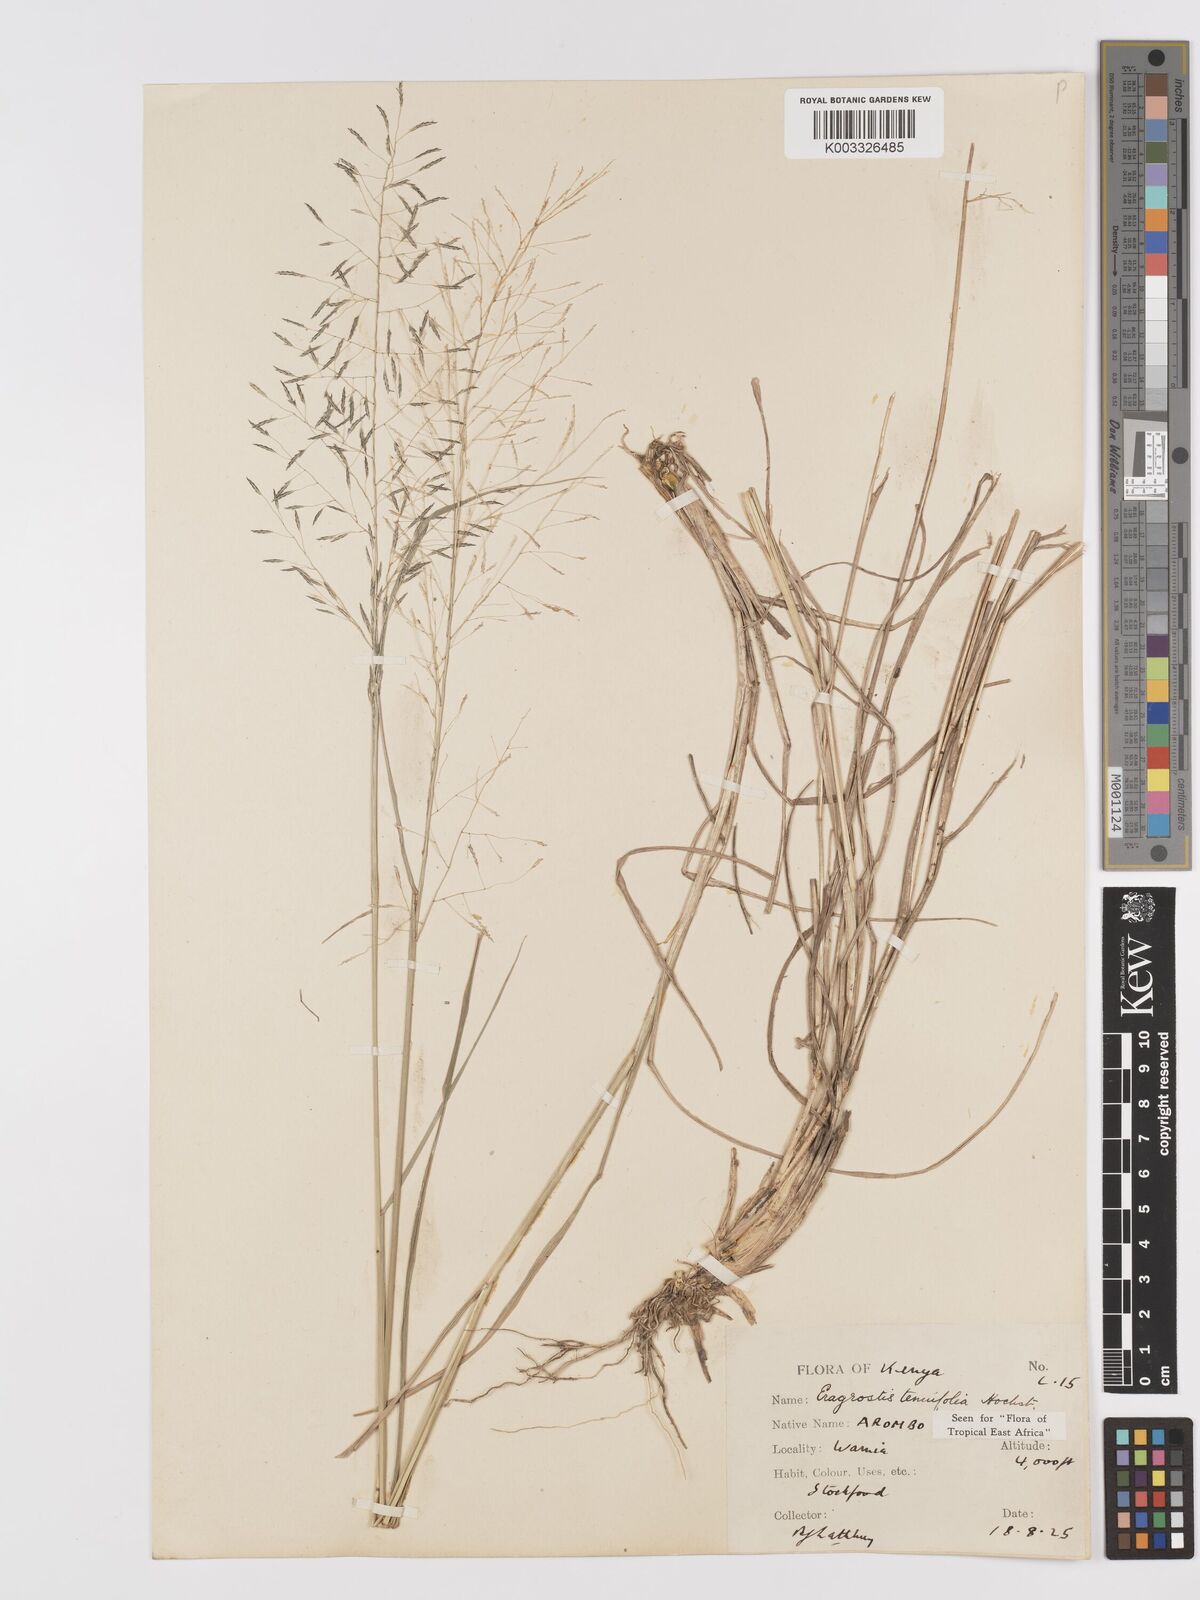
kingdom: Plantae
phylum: Tracheophyta
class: Liliopsida
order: Poales
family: Poaceae
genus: Eragrostis
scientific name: Eragrostis tenuifolia
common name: Elastic grass
